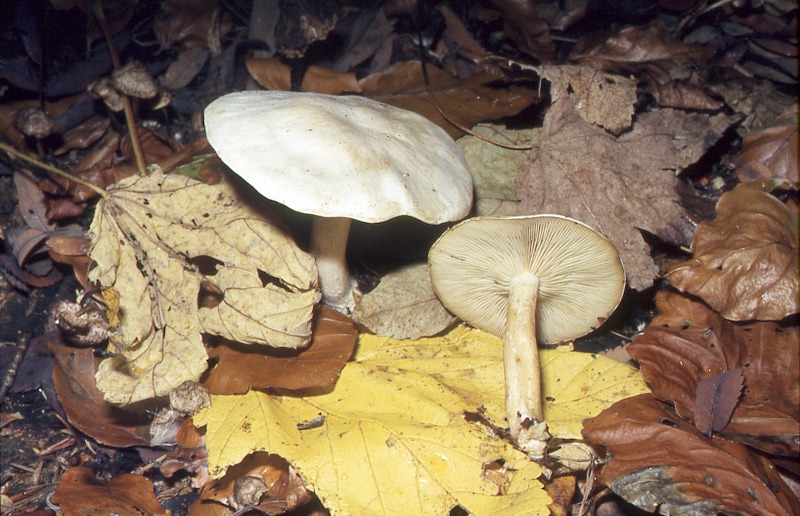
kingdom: Fungi
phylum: Basidiomycota
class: Agaricomycetes
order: Agaricales
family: Tricholomataceae
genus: Clitocybe
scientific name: Clitocybe phyllophila
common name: Frosty funnel
